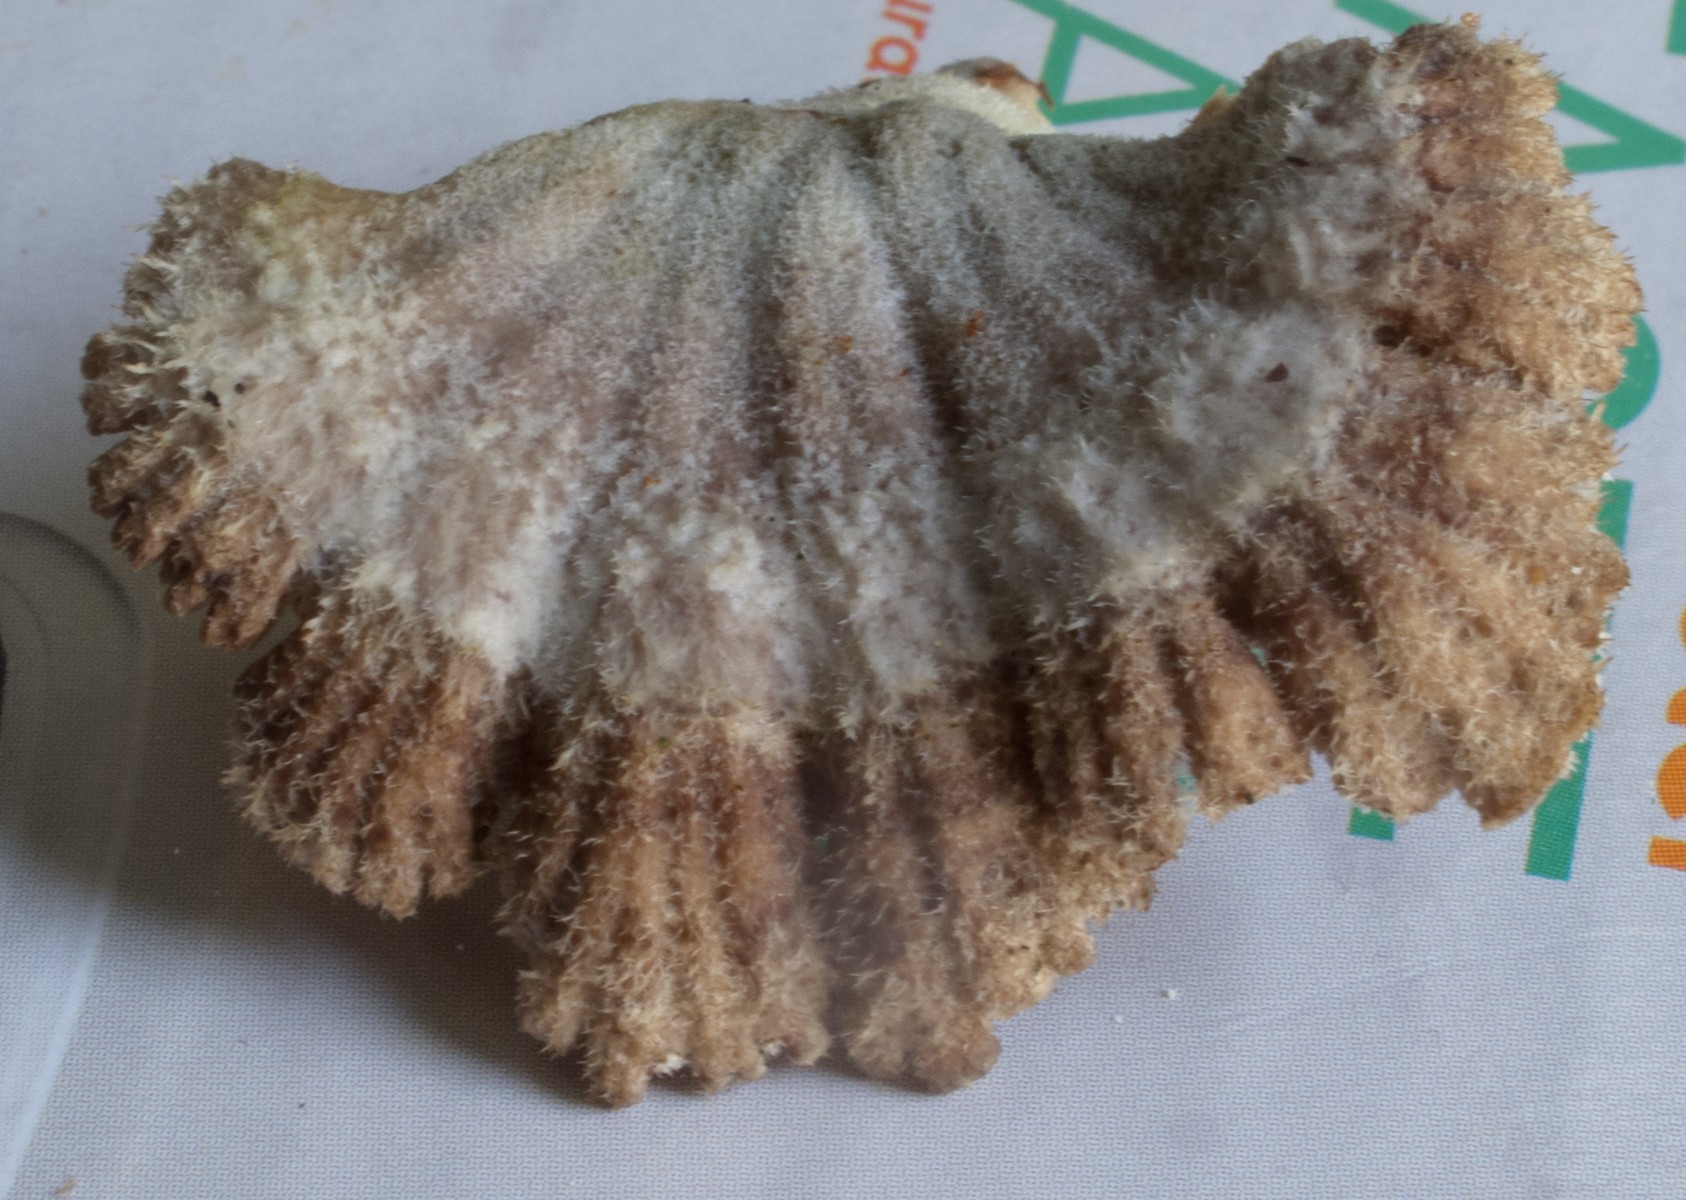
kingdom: Fungi
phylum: Basidiomycota
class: Agaricomycetes
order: Agaricales
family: Schizophyllaceae
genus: Schizophyllum
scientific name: Schizophyllum commune
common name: kløvblad
